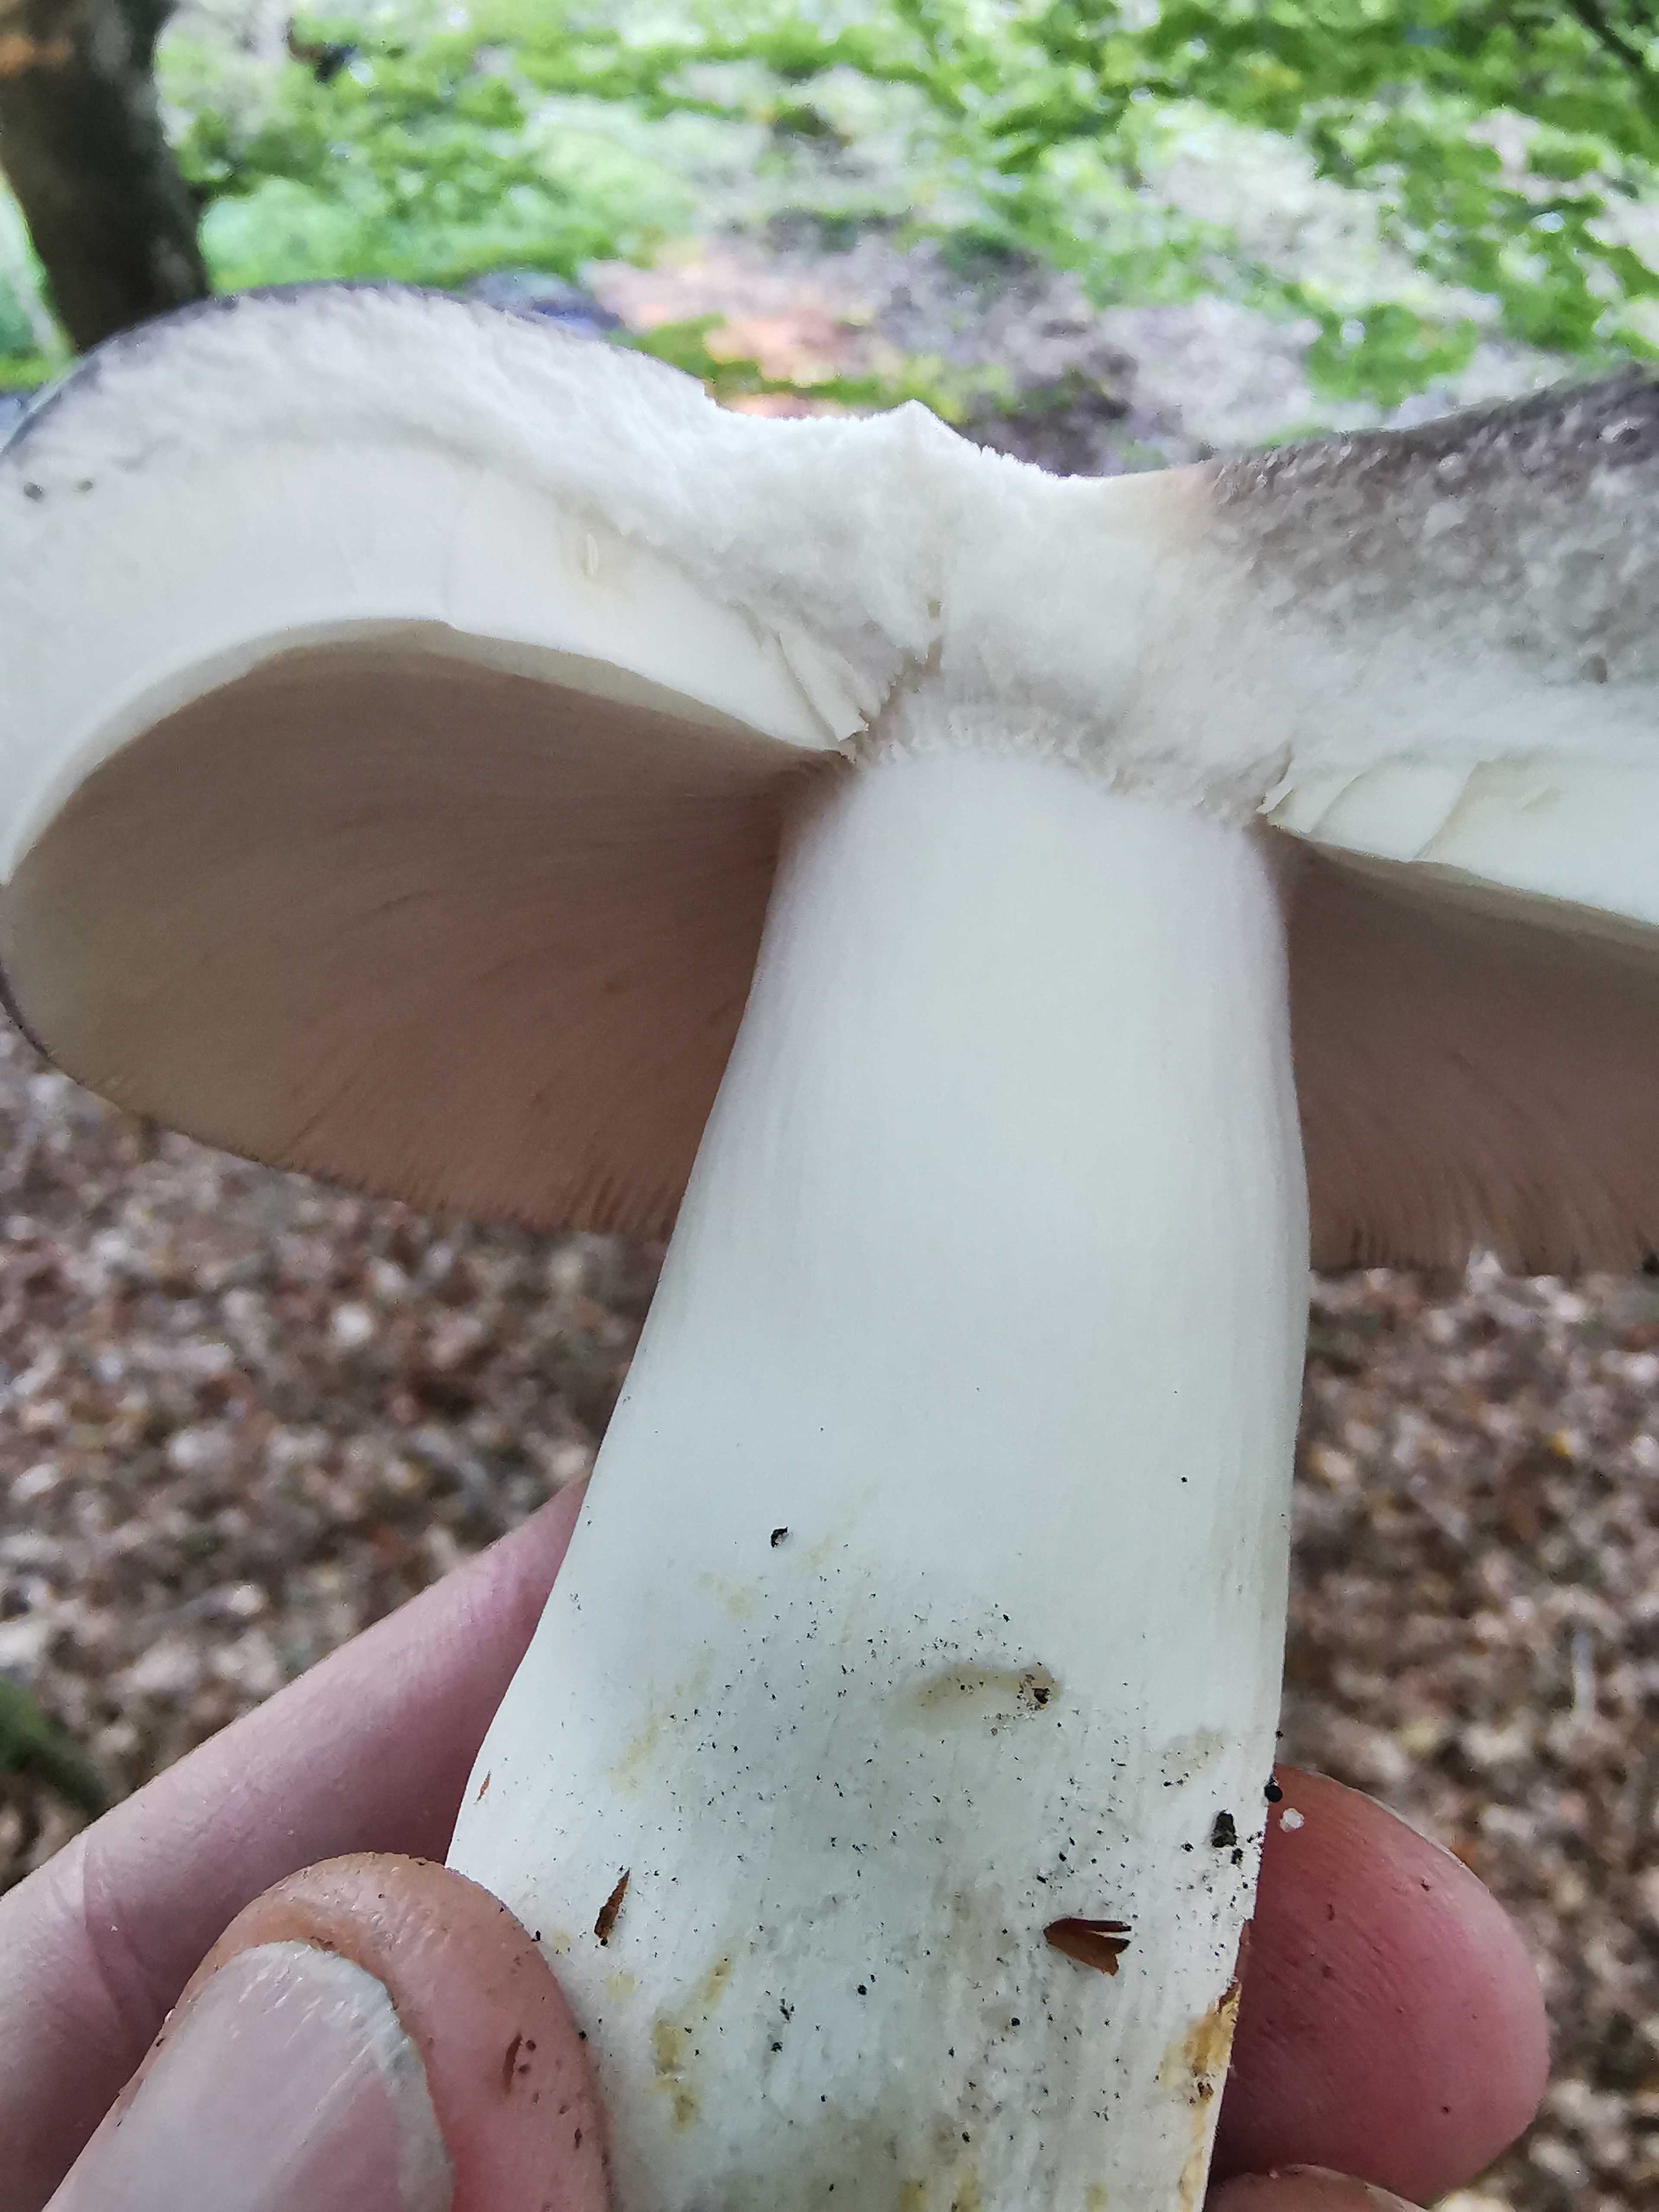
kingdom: Fungi
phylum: Basidiomycota
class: Agaricomycetes
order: Russulales
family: Russulaceae
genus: Russula
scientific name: Russula cyanoxantha
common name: broget skørhat
